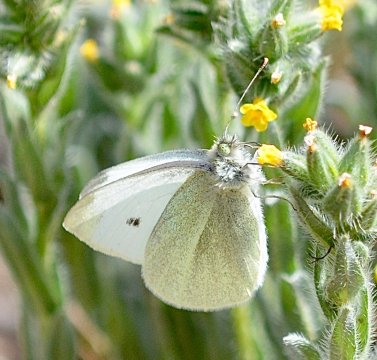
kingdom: Animalia
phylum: Arthropoda
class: Insecta
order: Lepidoptera
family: Pieridae
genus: Pieris
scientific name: Pieris rapae
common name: Cabbage White
